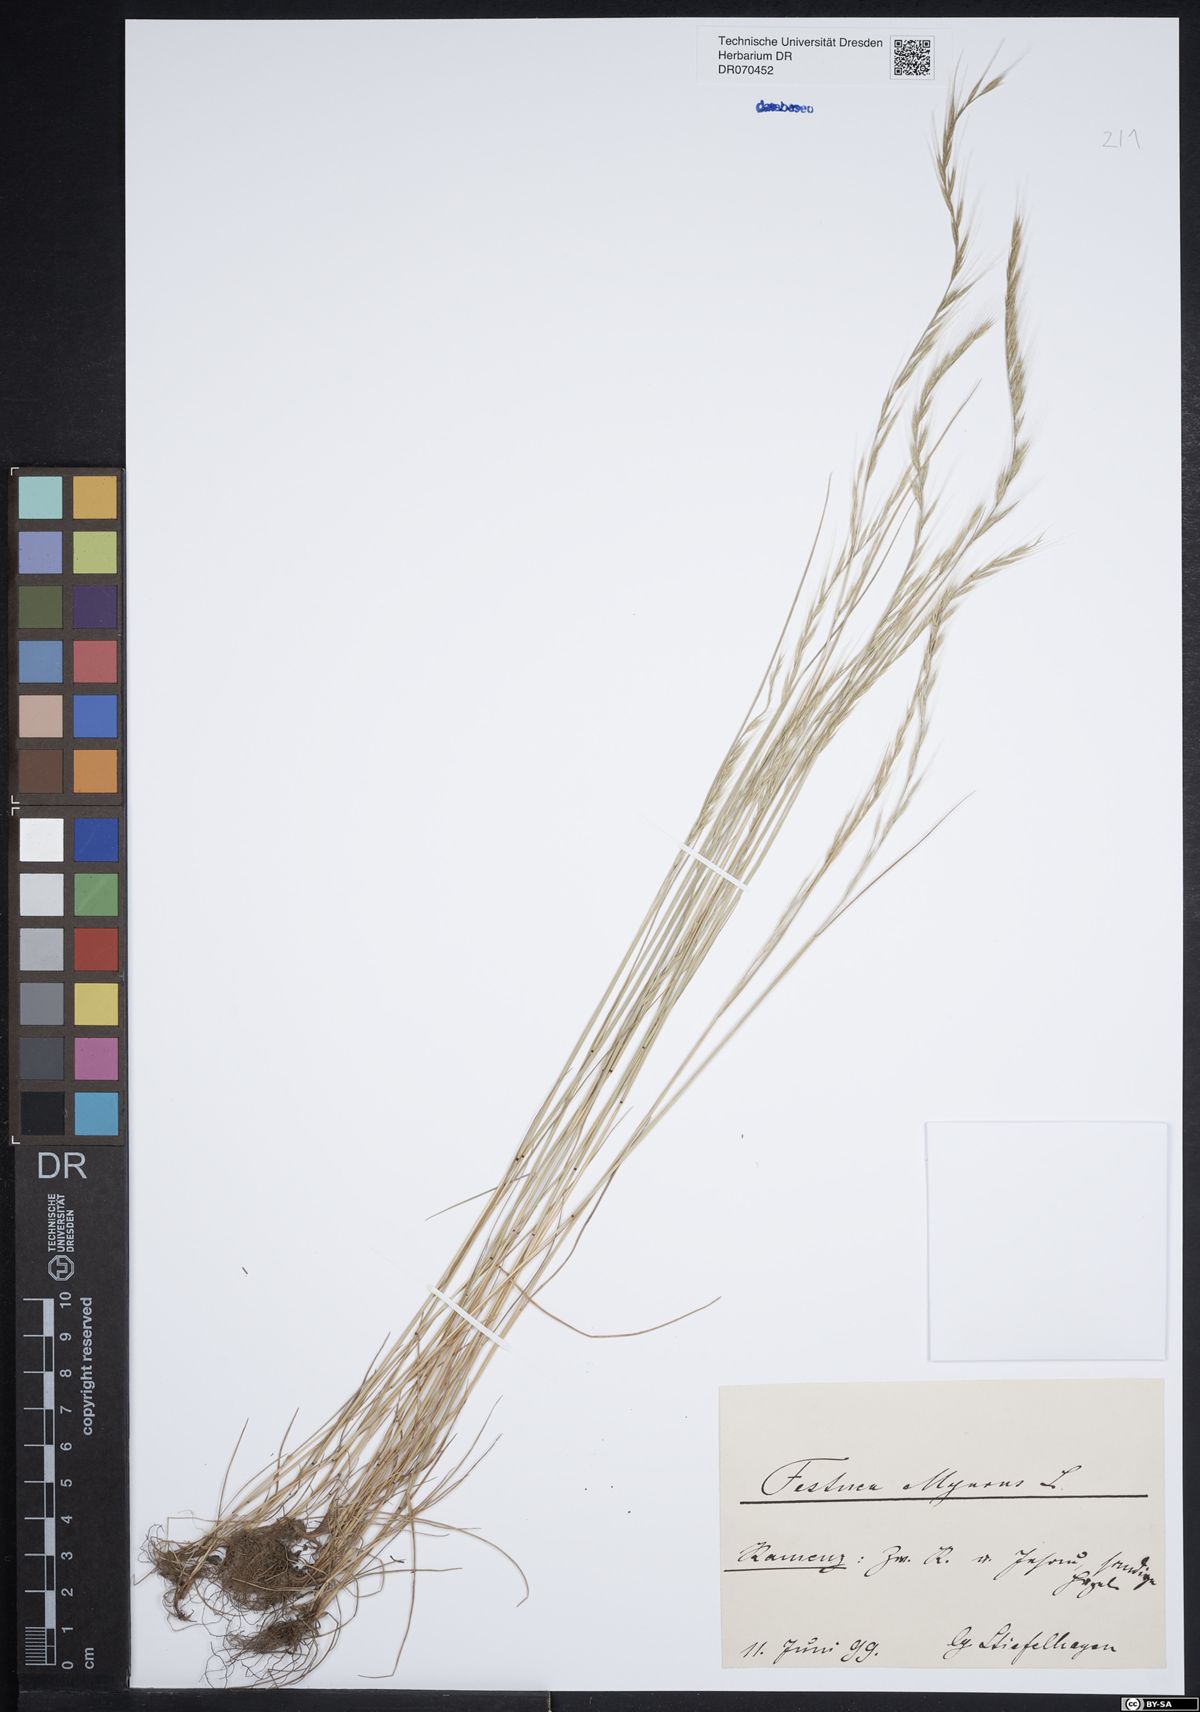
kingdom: Plantae
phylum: Tracheophyta
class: Liliopsida
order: Poales
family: Poaceae
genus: Festuca
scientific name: Festuca myuros
